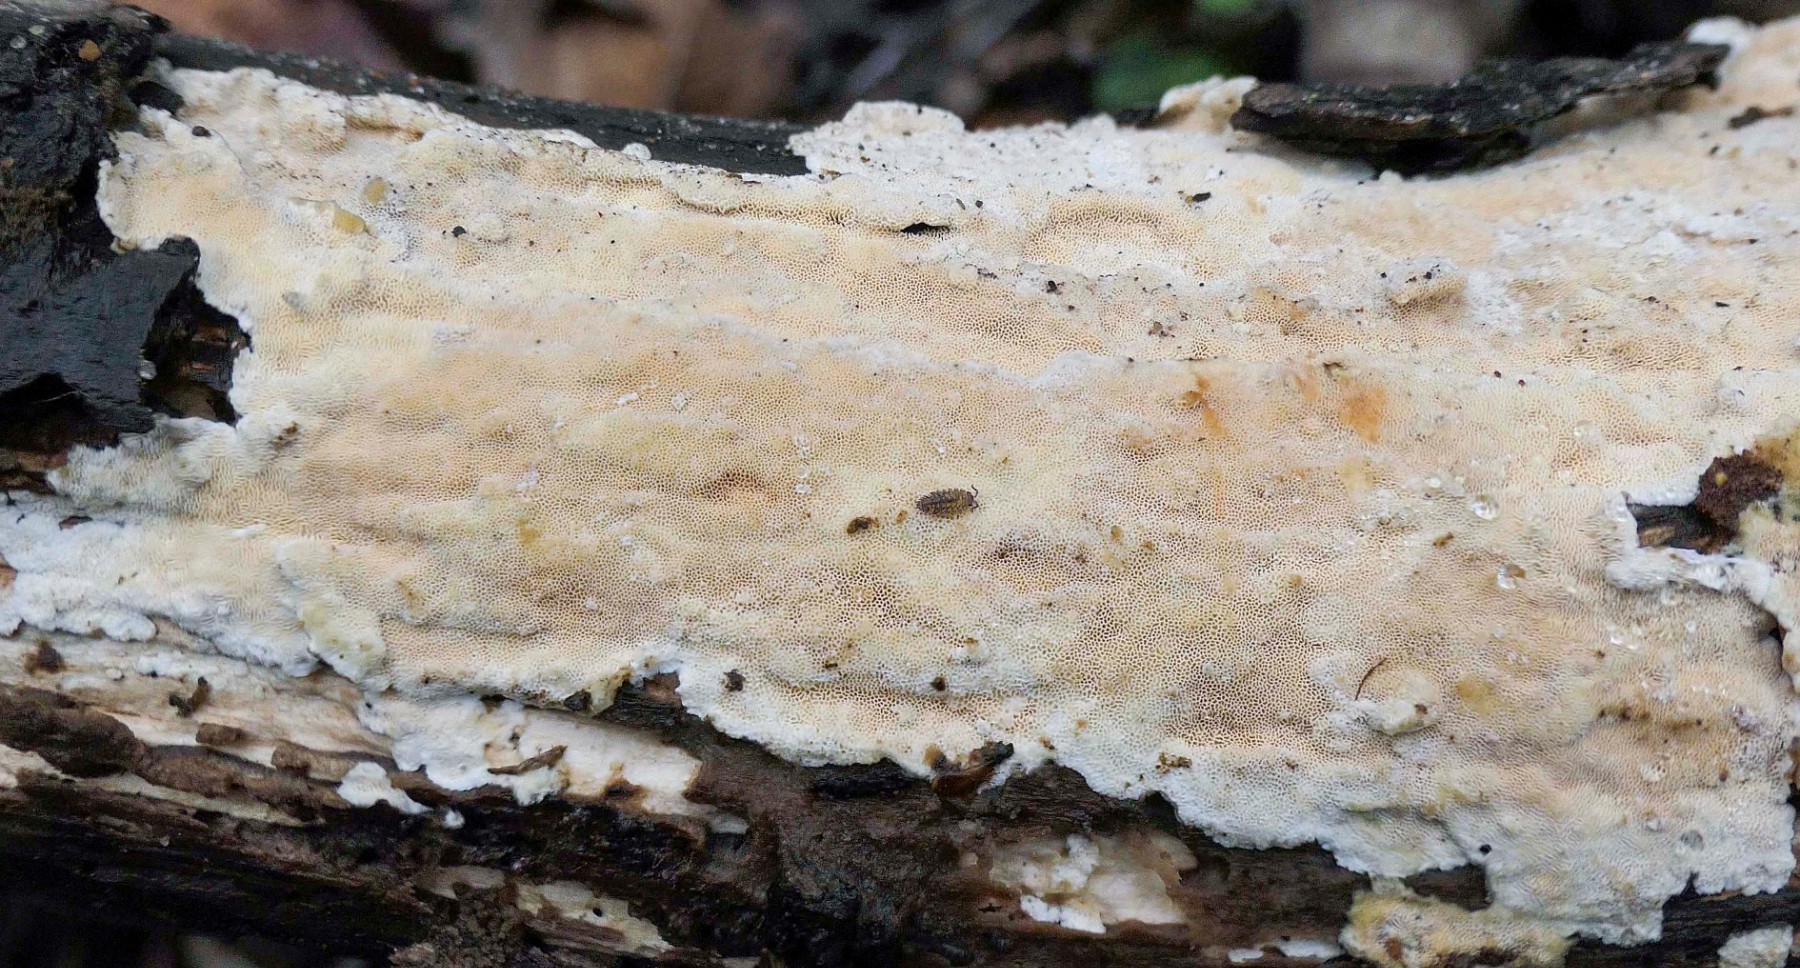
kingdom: Fungi
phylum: Basidiomycota
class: Agaricomycetes
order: Polyporales
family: Steccherinaceae
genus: Junghuhnia
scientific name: Junghuhnia nitida
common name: almindelig skønporesvamp
